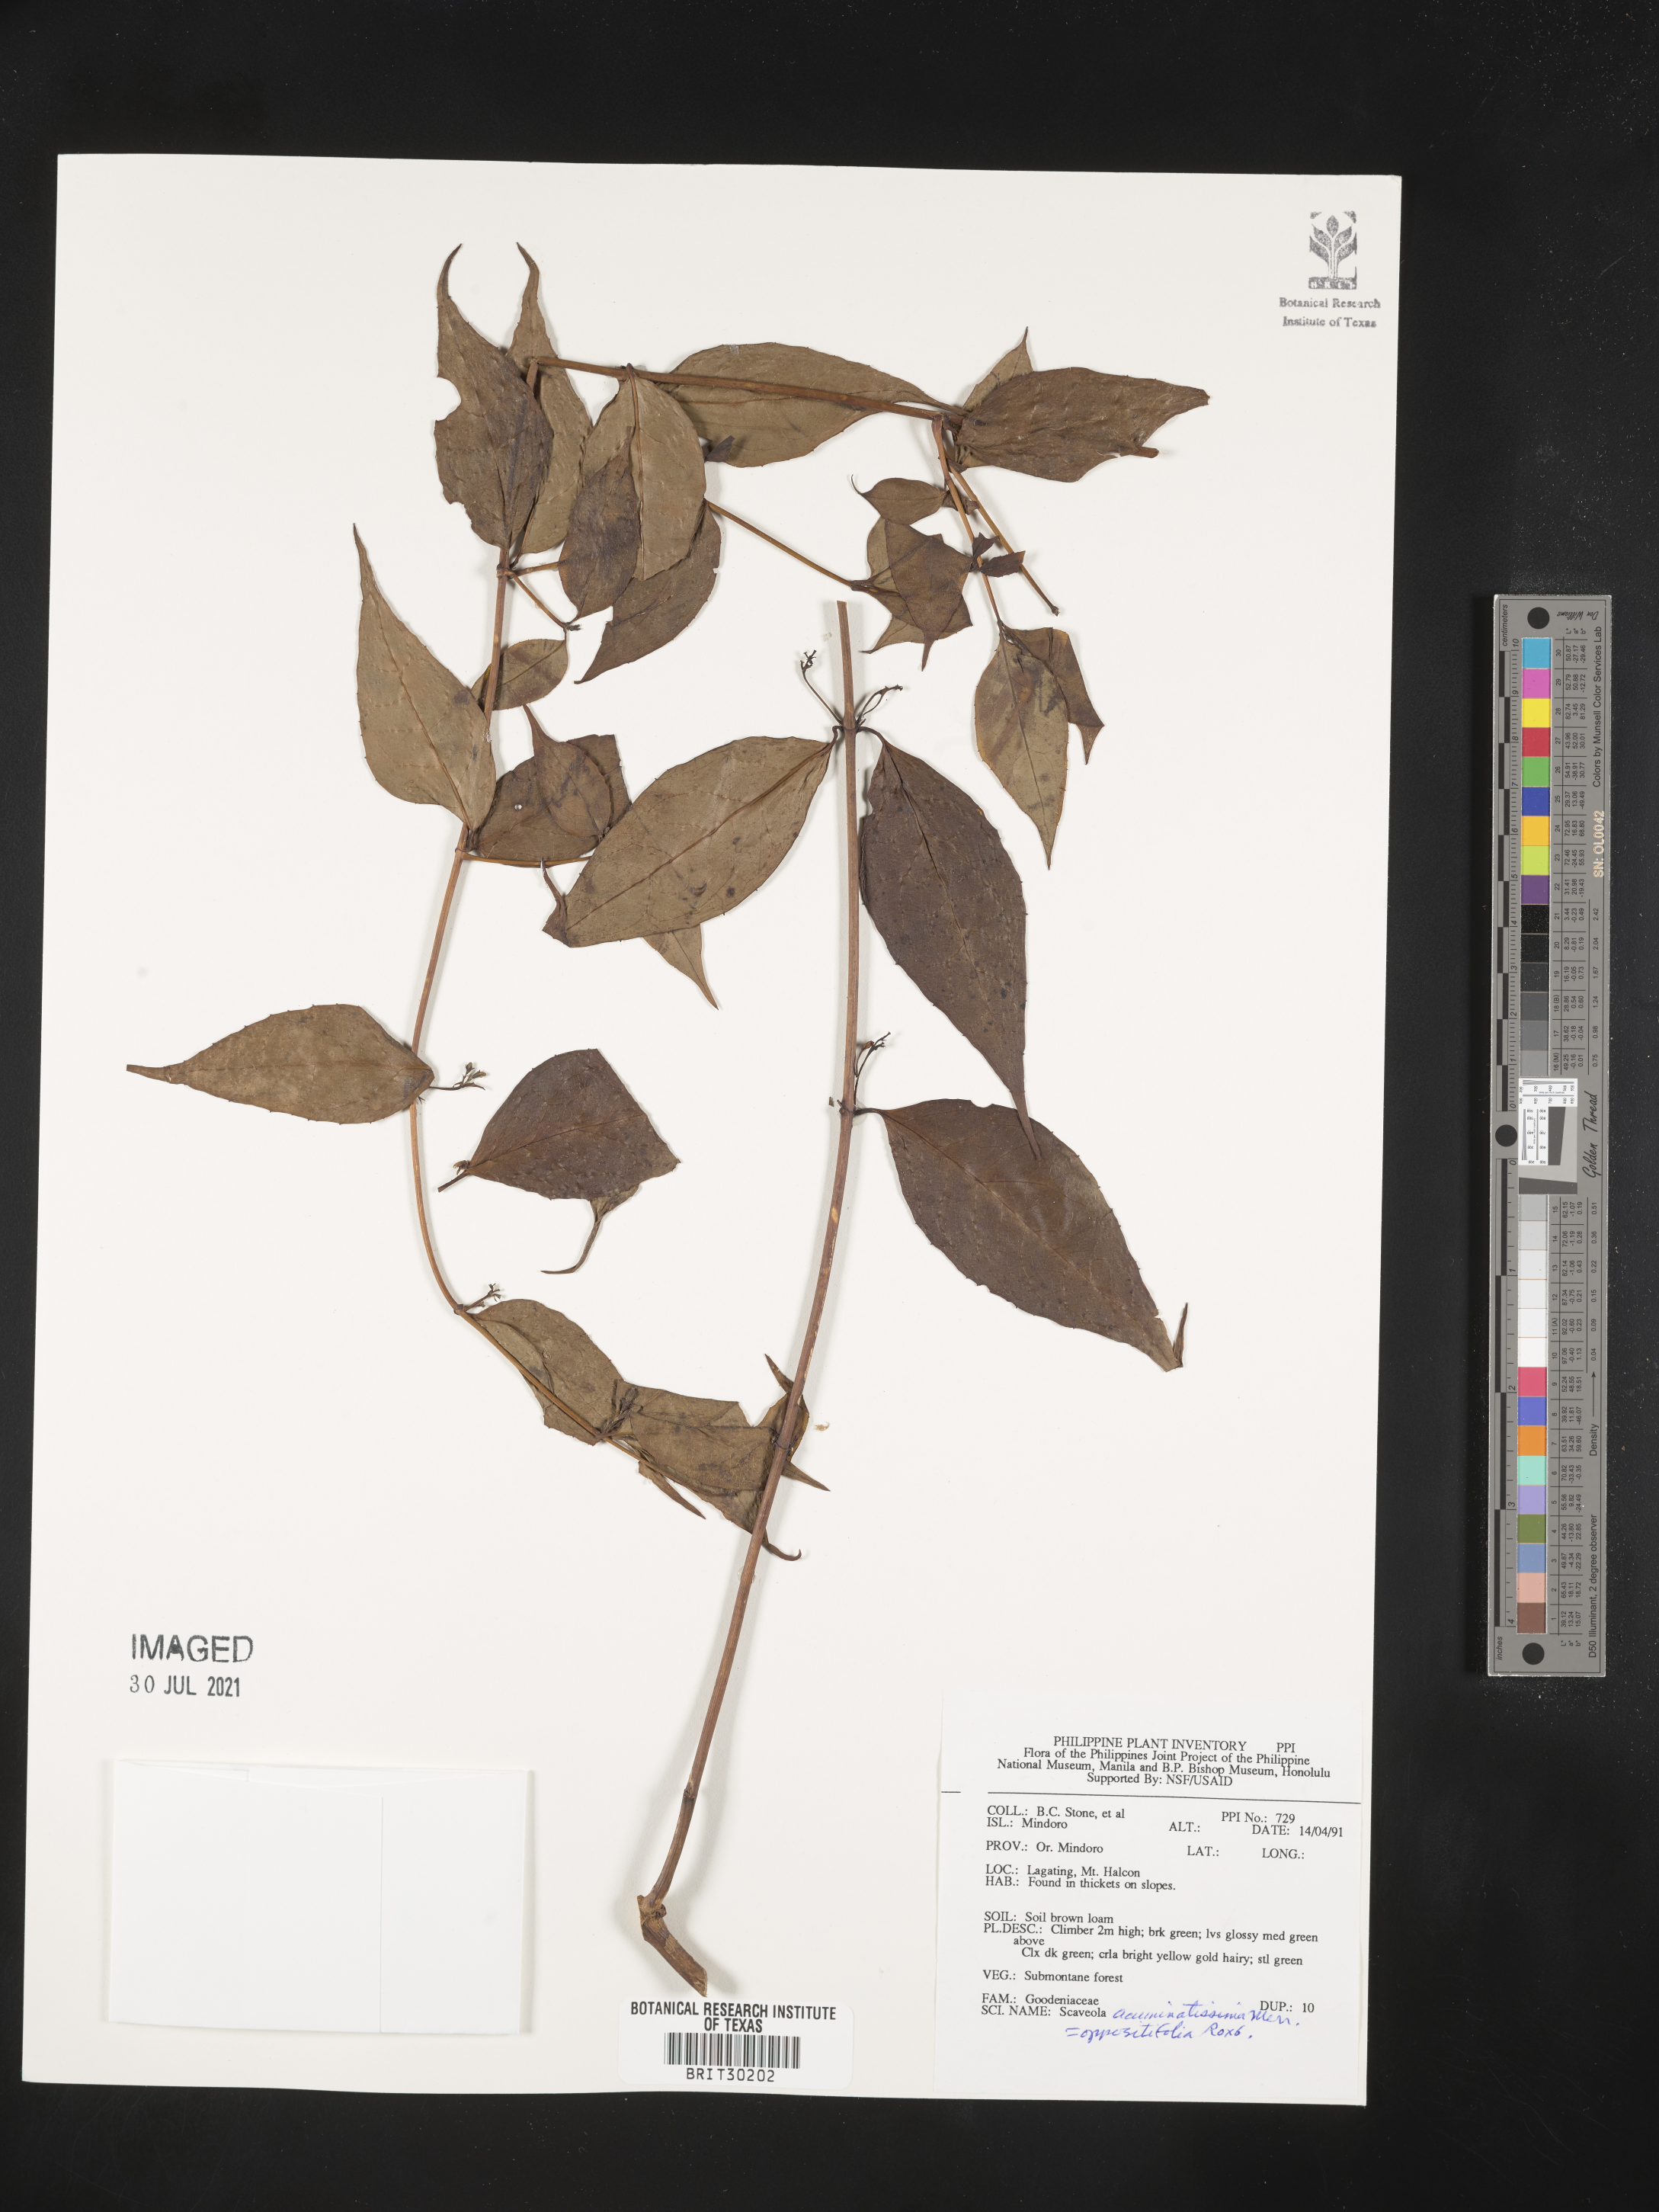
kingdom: Plantae
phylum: Tracheophyta
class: Magnoliopsida
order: Asterales
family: Goodeniaceae
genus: Scaevola
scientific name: Scaevola oppositifolia
